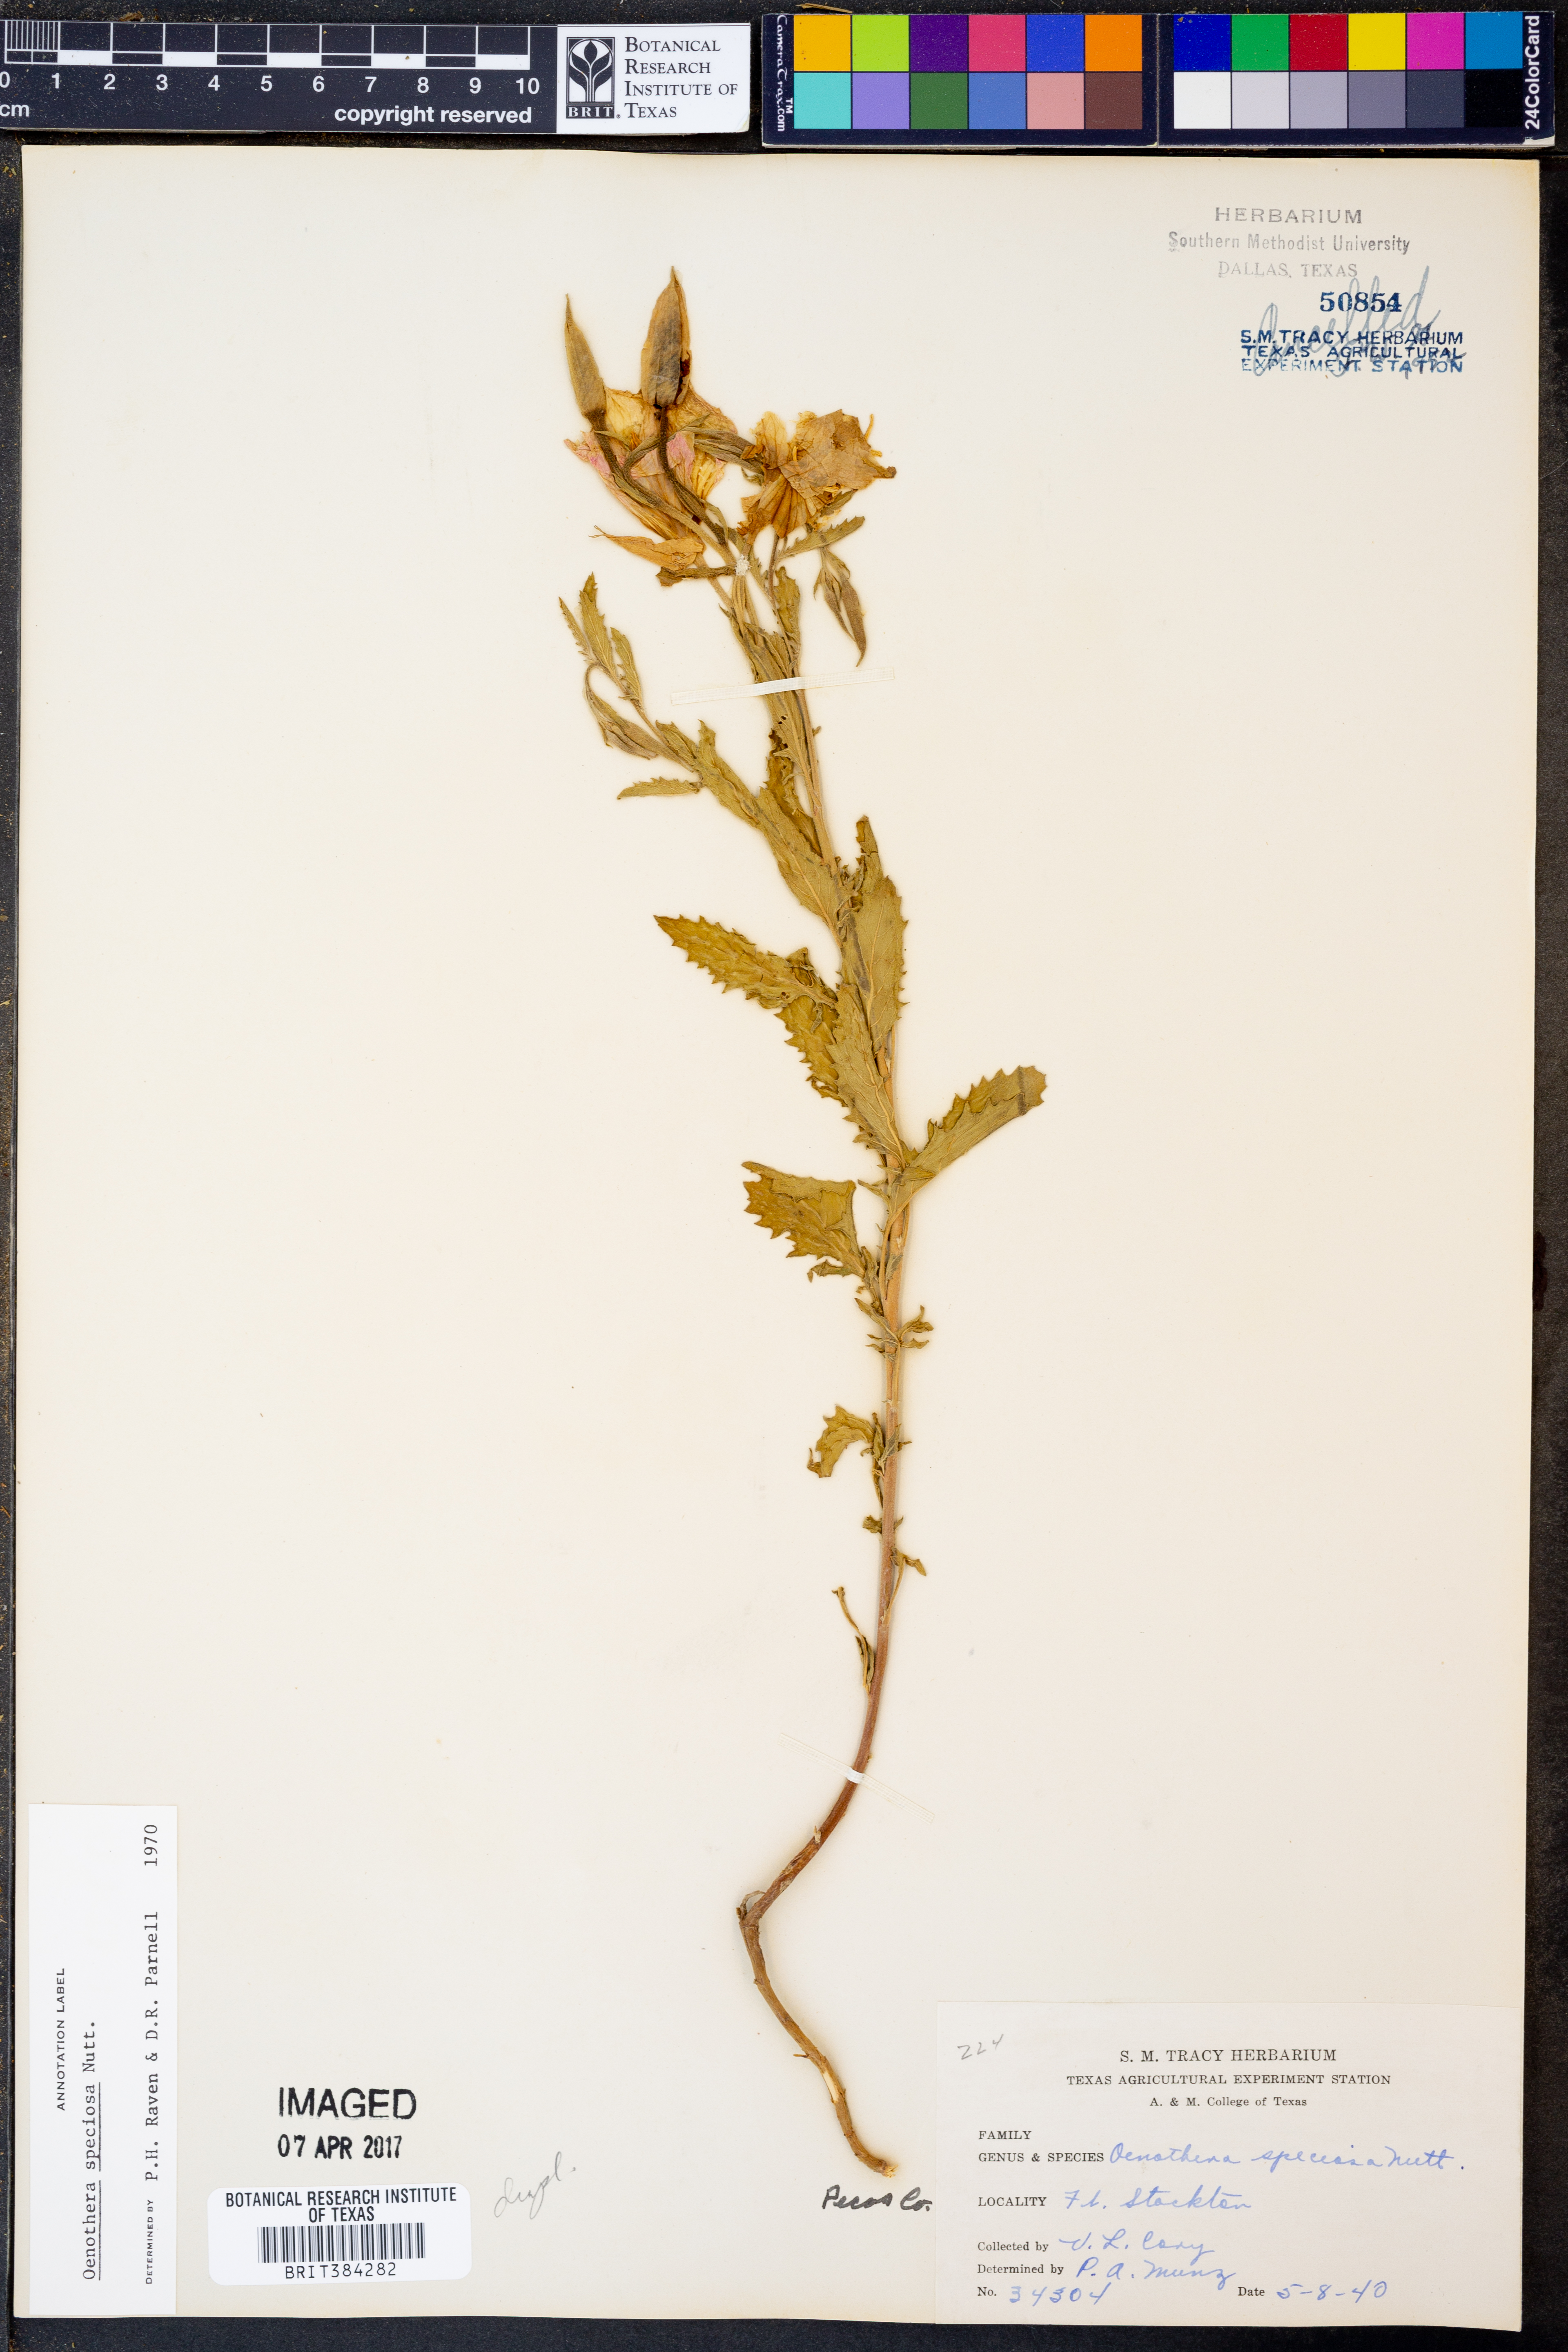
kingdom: Plantae
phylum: Tracheophyta
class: Magnoliopsida
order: Myrtales
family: Onagraceae
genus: Oenothera
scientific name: Oenothera speciosa
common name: White evening-primrose
